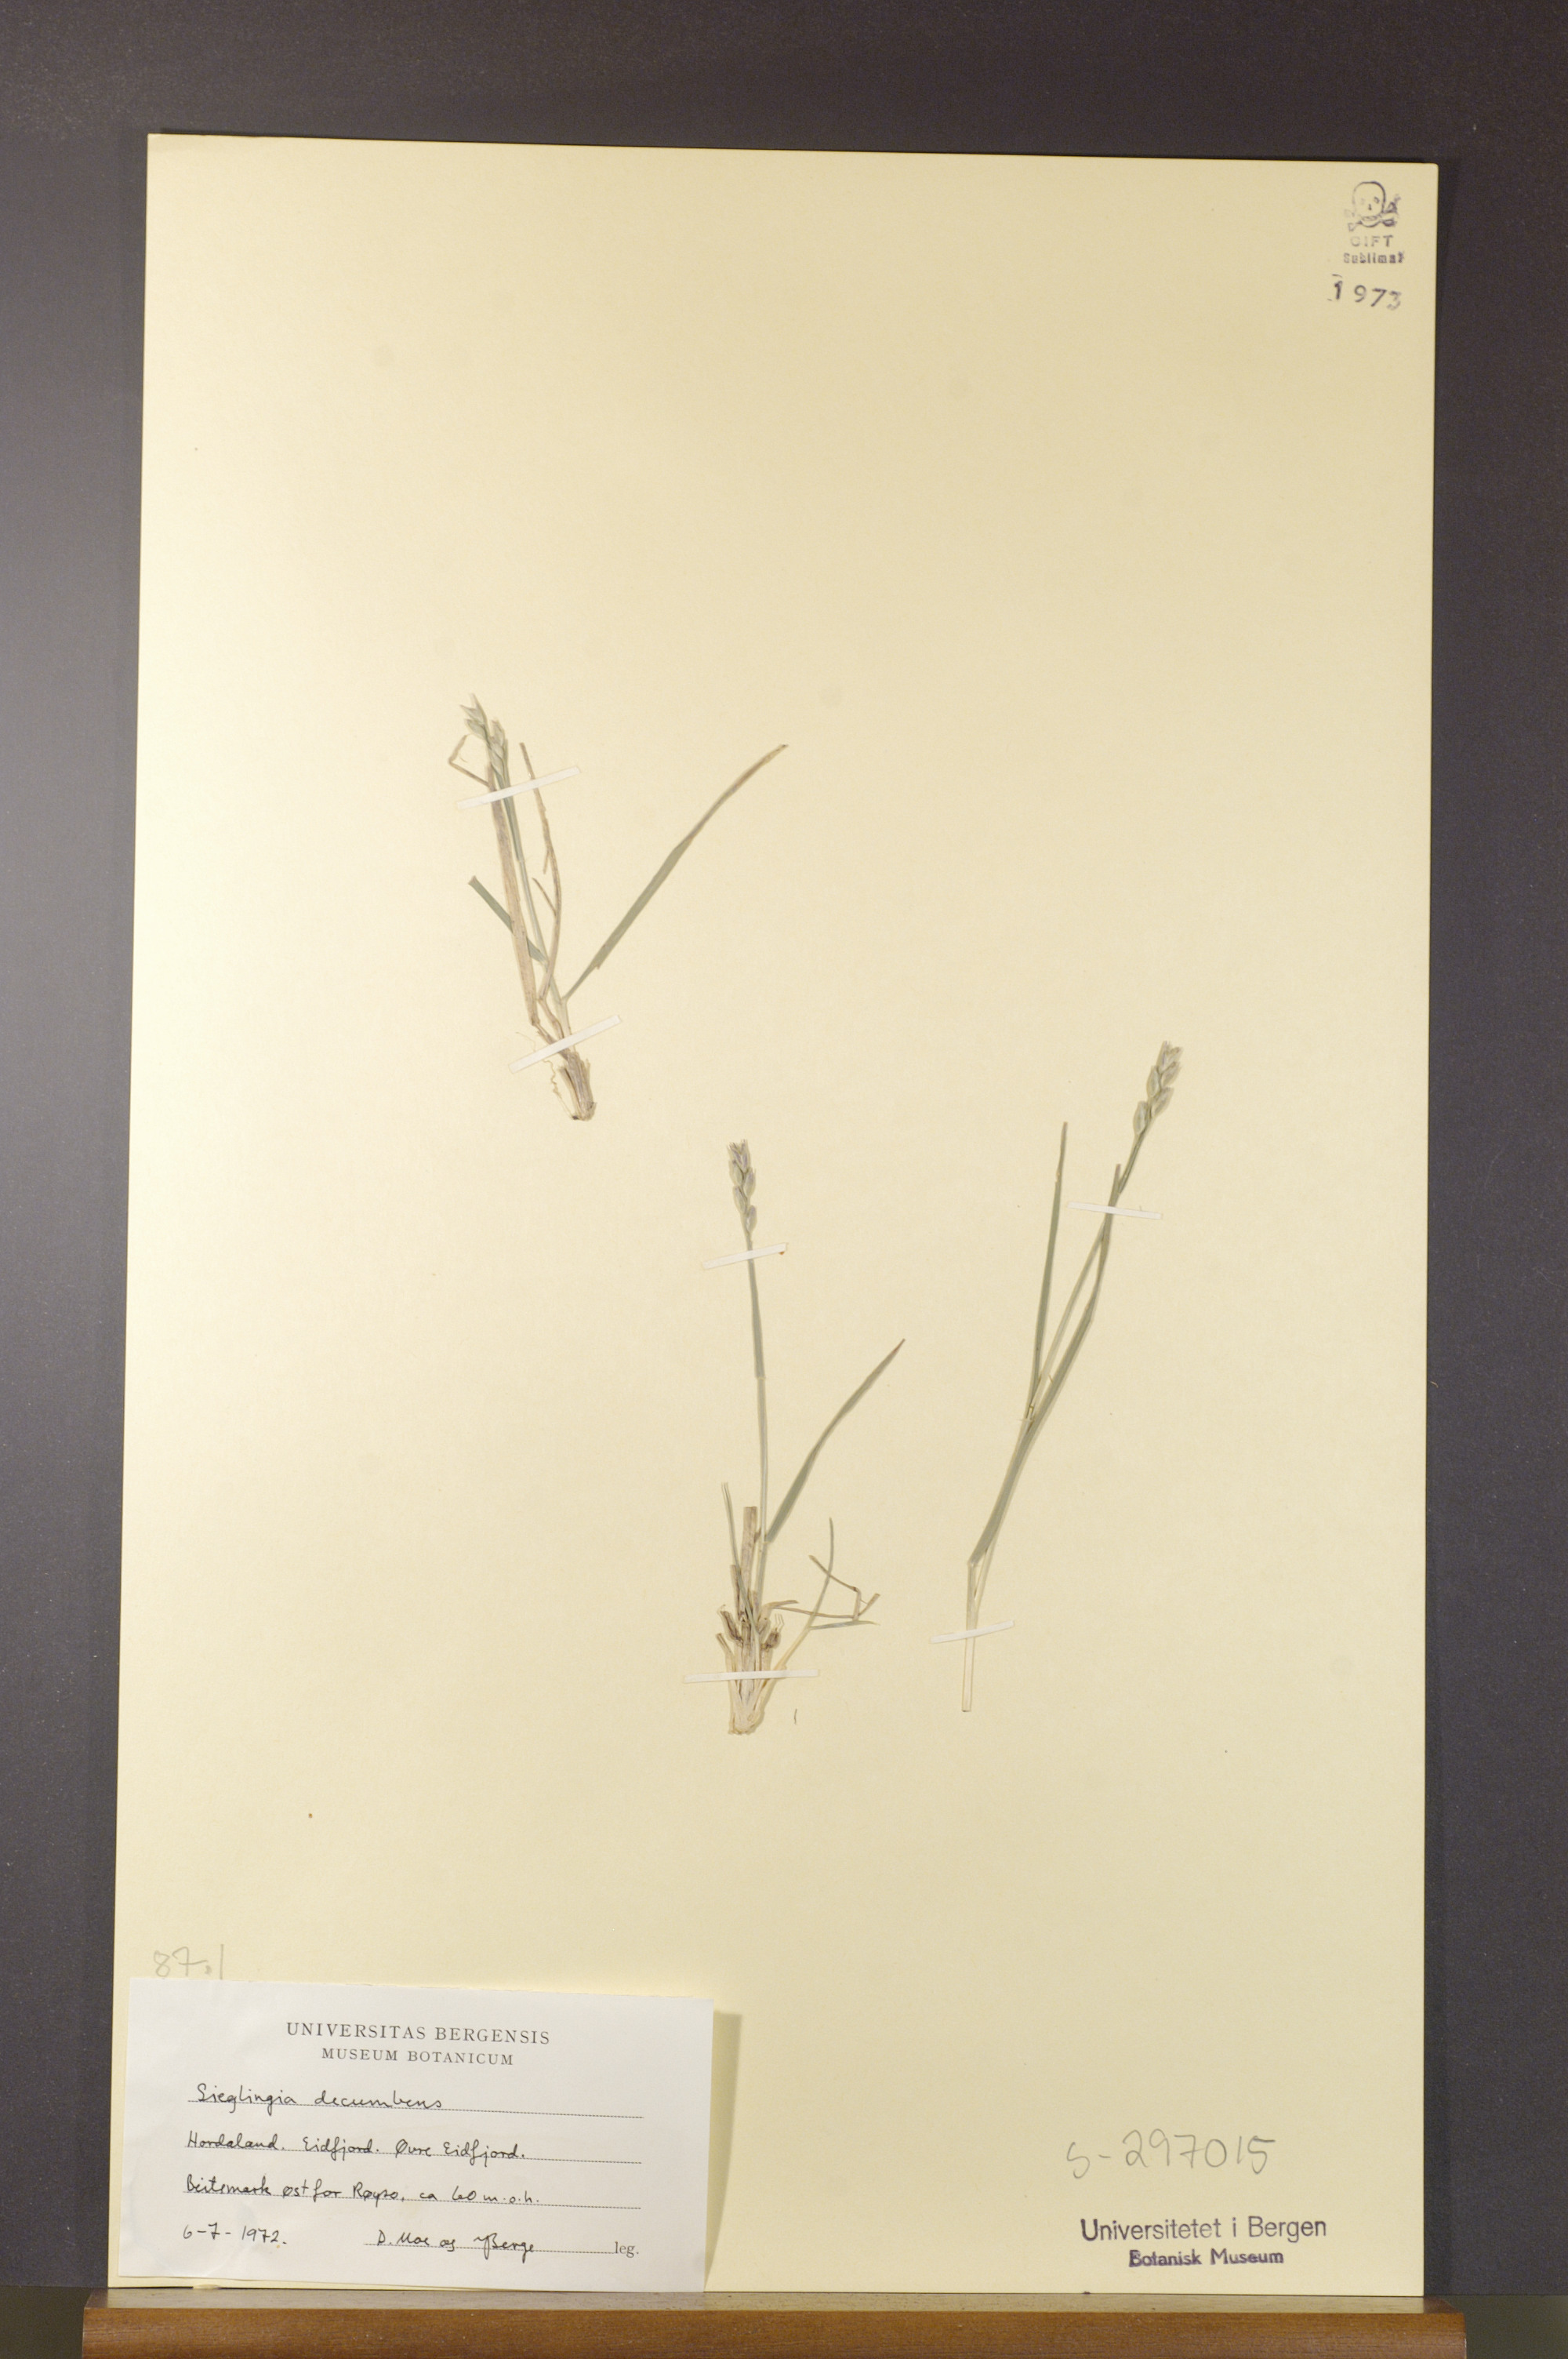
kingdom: Plantae
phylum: Tracheophyta
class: Liliopsida
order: Poales
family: Poaceae
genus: Danthonia
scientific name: Danthonia decumbens
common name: Common heathgrass
